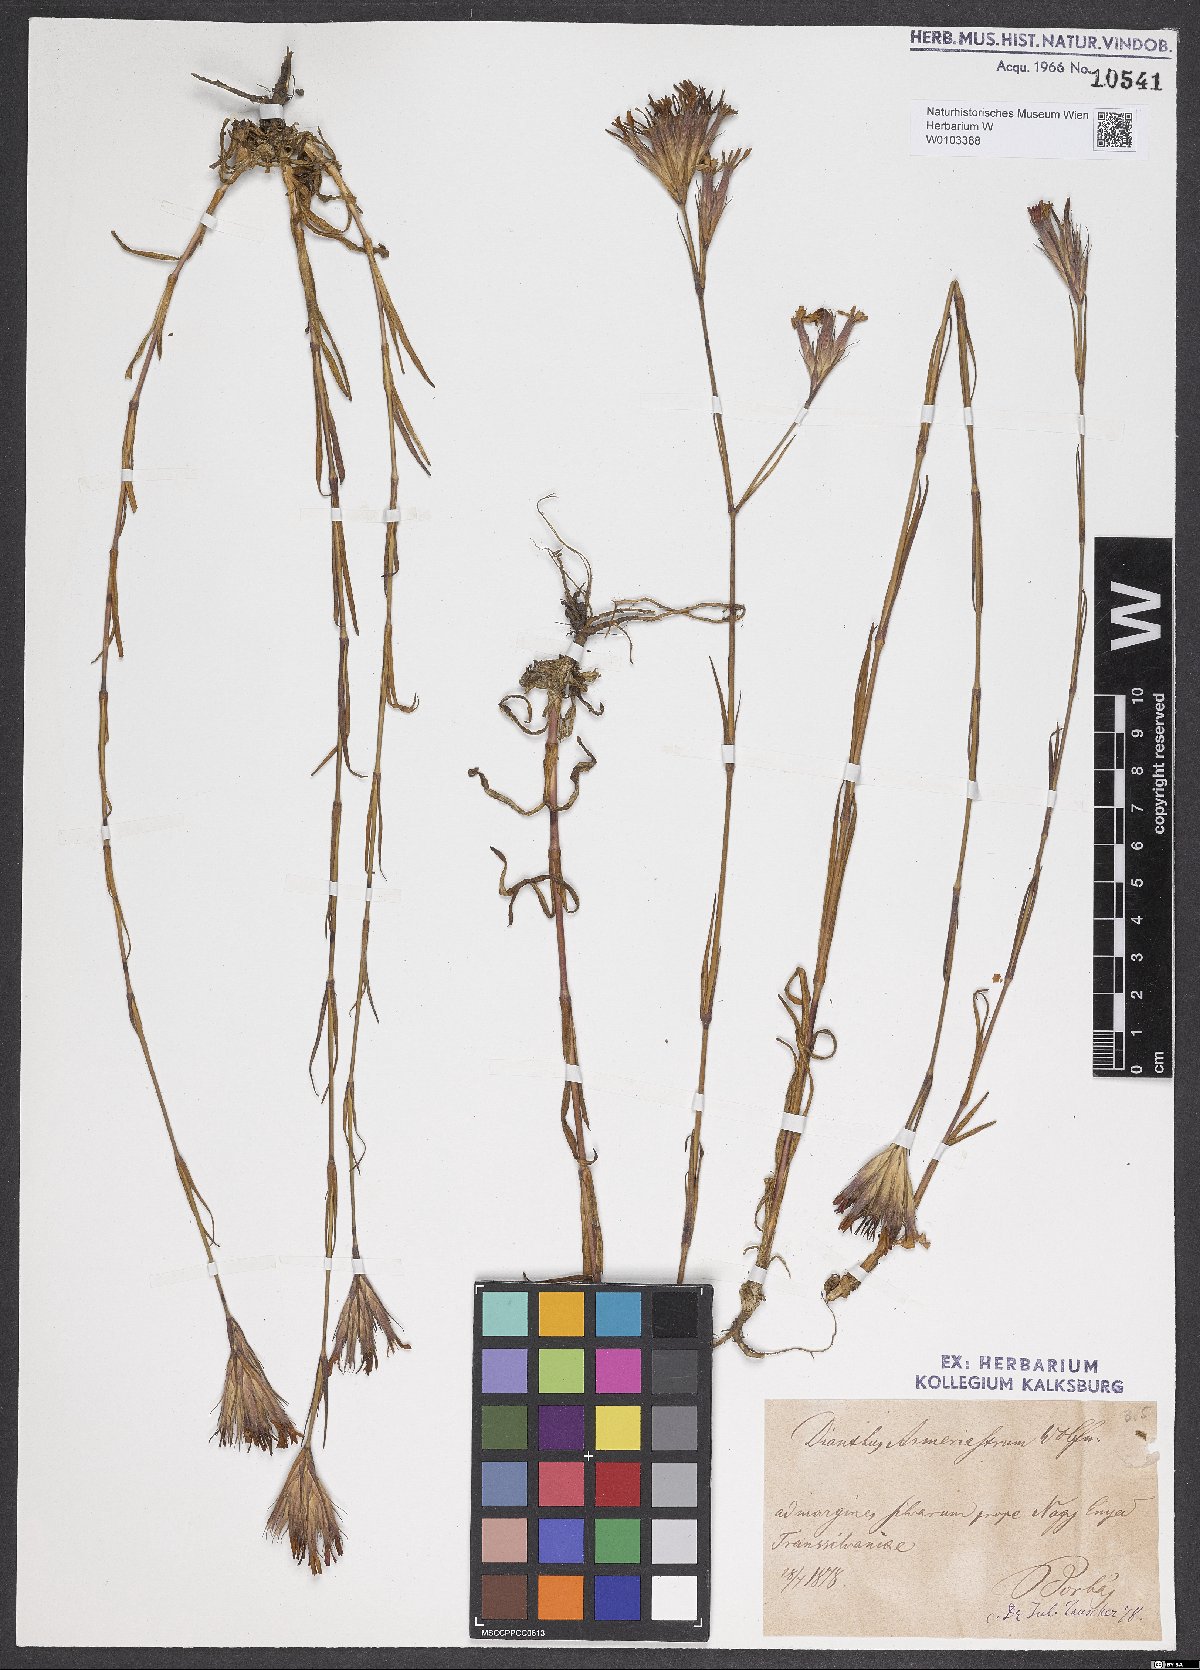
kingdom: Plantae
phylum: Tracheophyta
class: Magnoliopsida
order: Caryophyllales
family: Caryophyllaceae
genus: Dianthus
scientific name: Dianthus corymbosus
